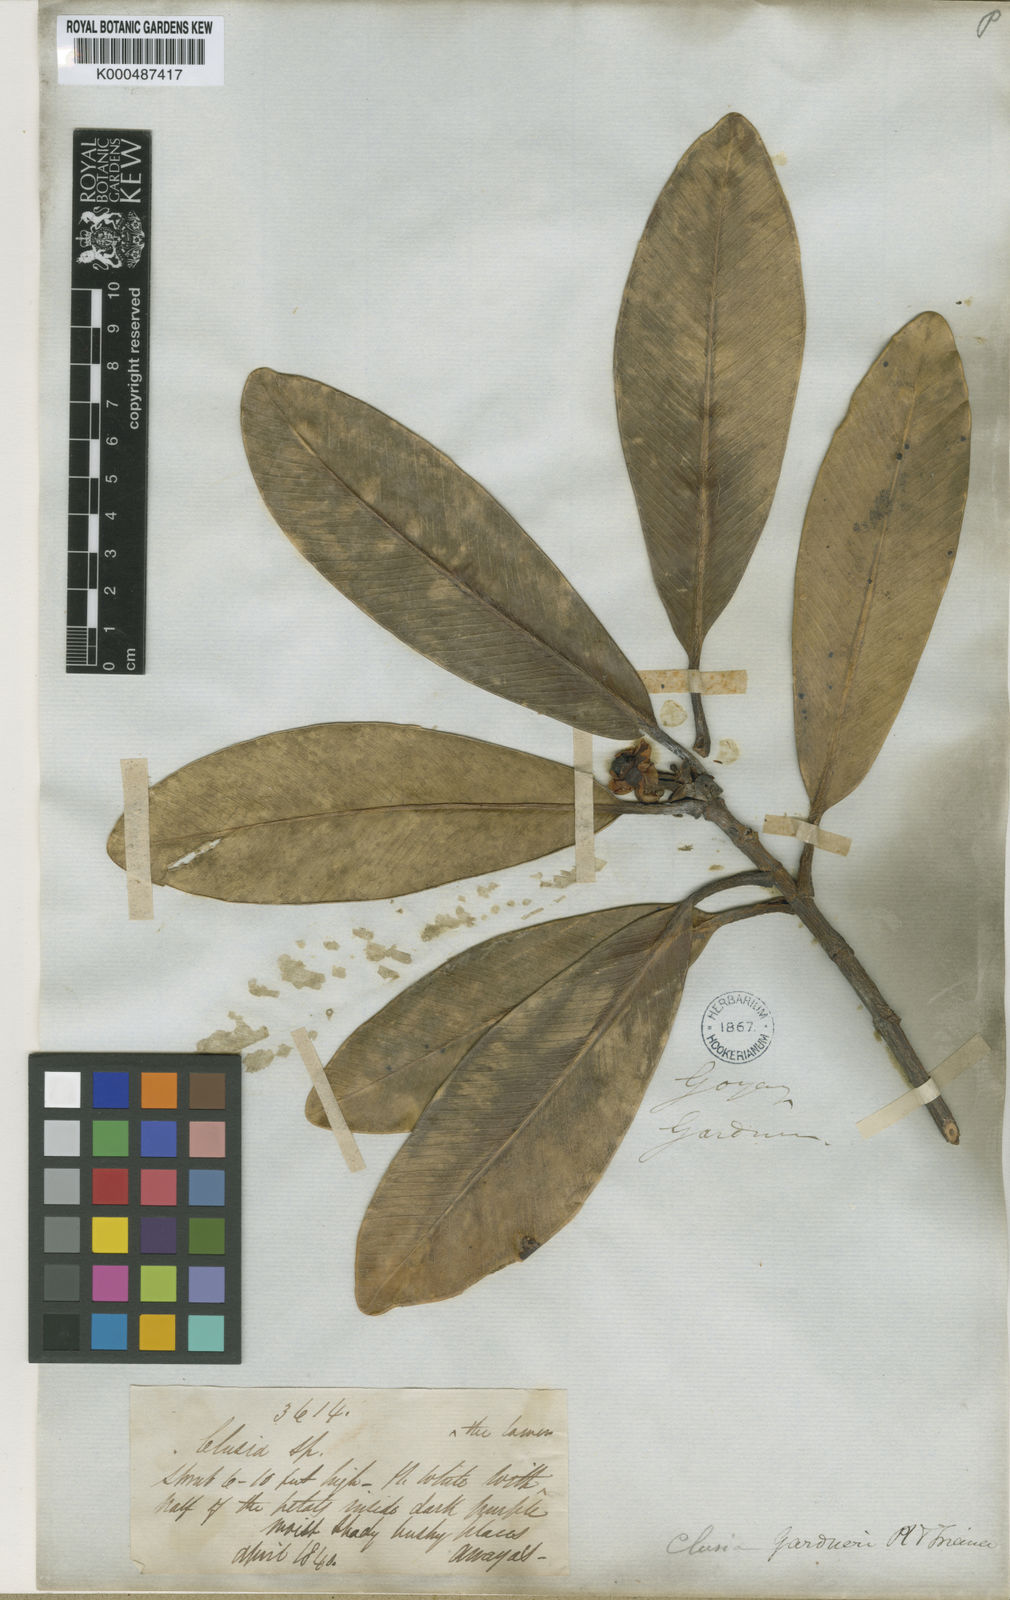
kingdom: Plantae
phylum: Tracheophyta
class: Magnoliopsida
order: Malpighiales
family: Clusiaceae
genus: Clusia
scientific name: Clusia gardneri
